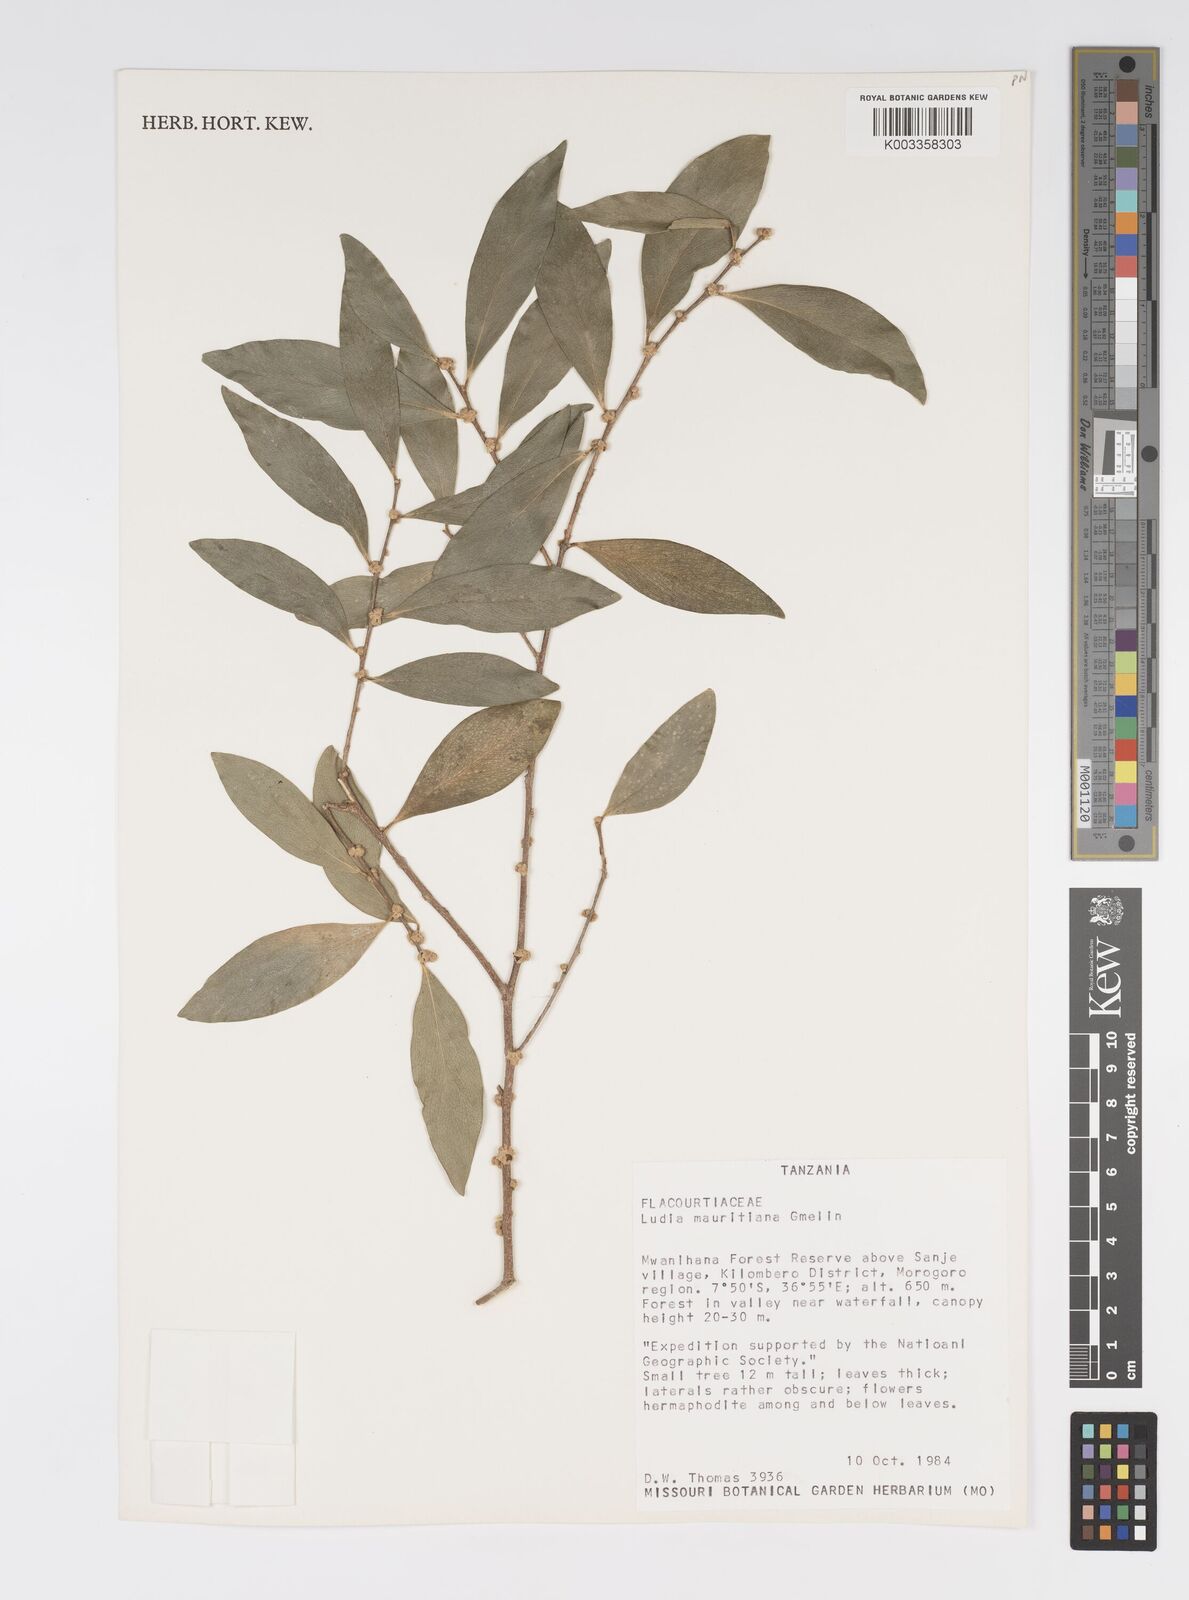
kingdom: Plantae
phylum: Tracheophyta
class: Magnoliopsida
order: Malpighiales
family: Salicaceae
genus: Ludia
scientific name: Ludia mauritiana
